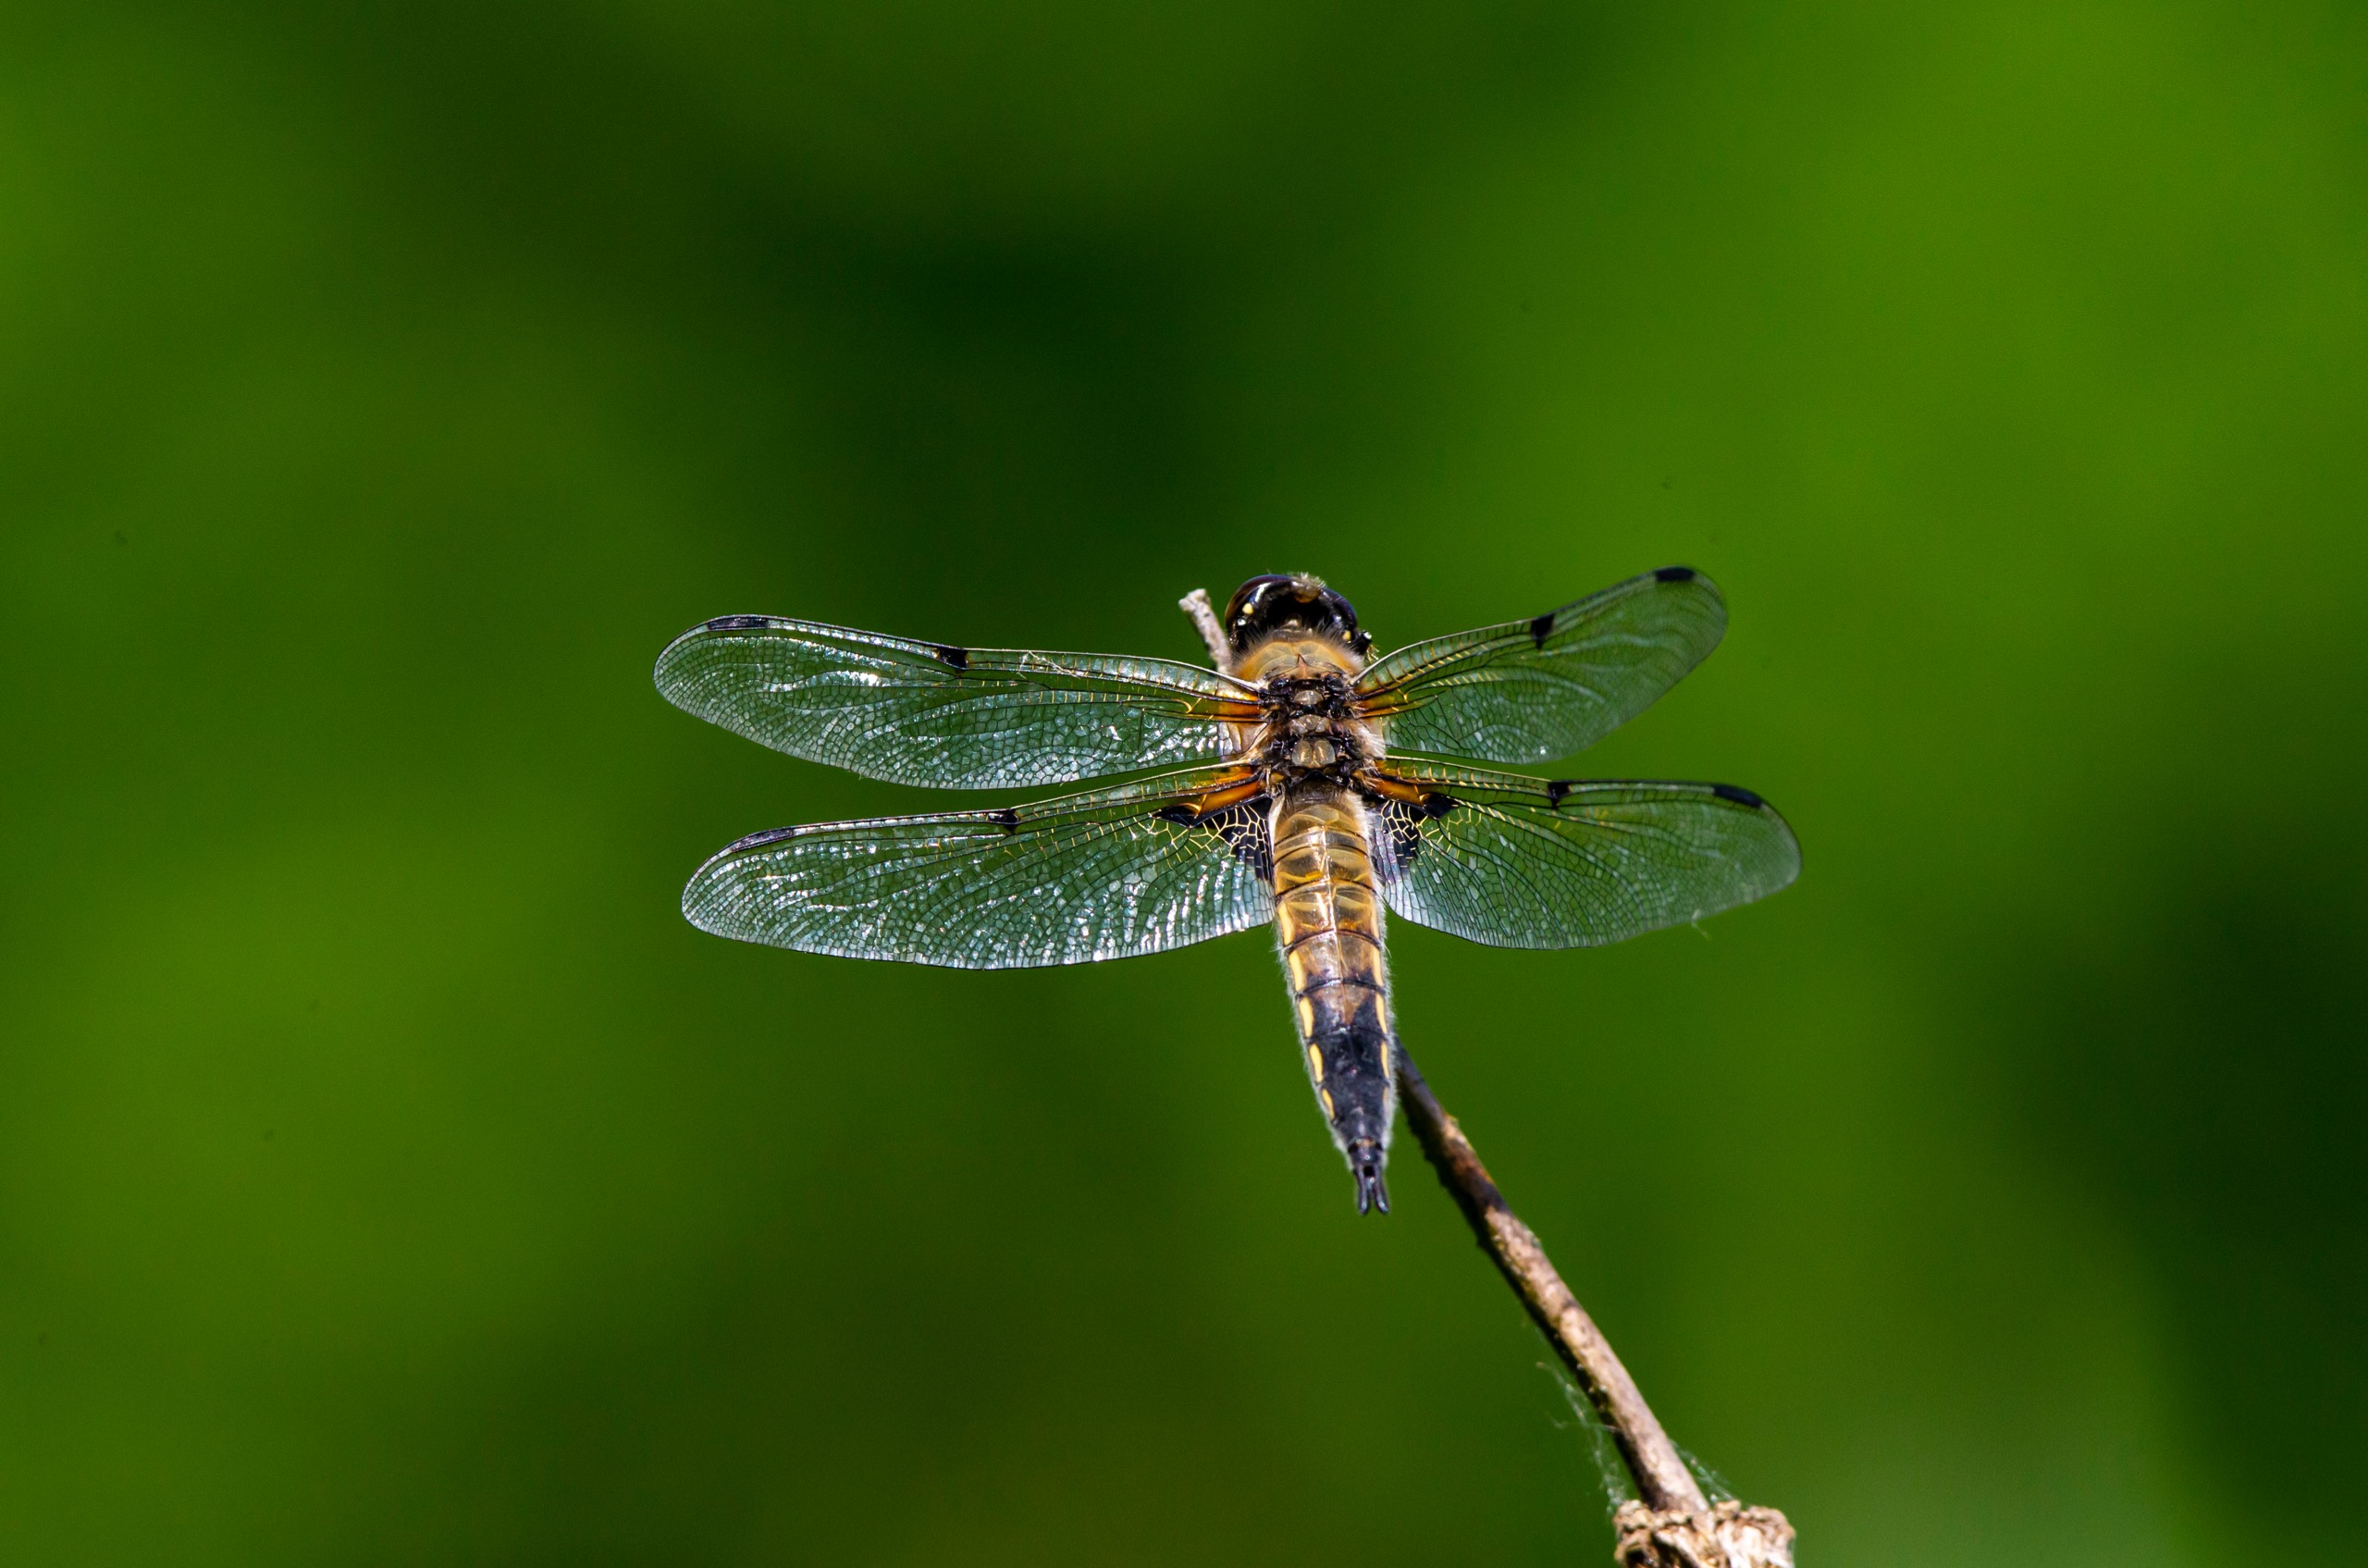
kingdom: Animalia
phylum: Arthropoda
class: Insecta
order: Odonata
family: Libellulidae
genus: Libellula
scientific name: Libellula quadrimaculata
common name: Fireplettet libel
